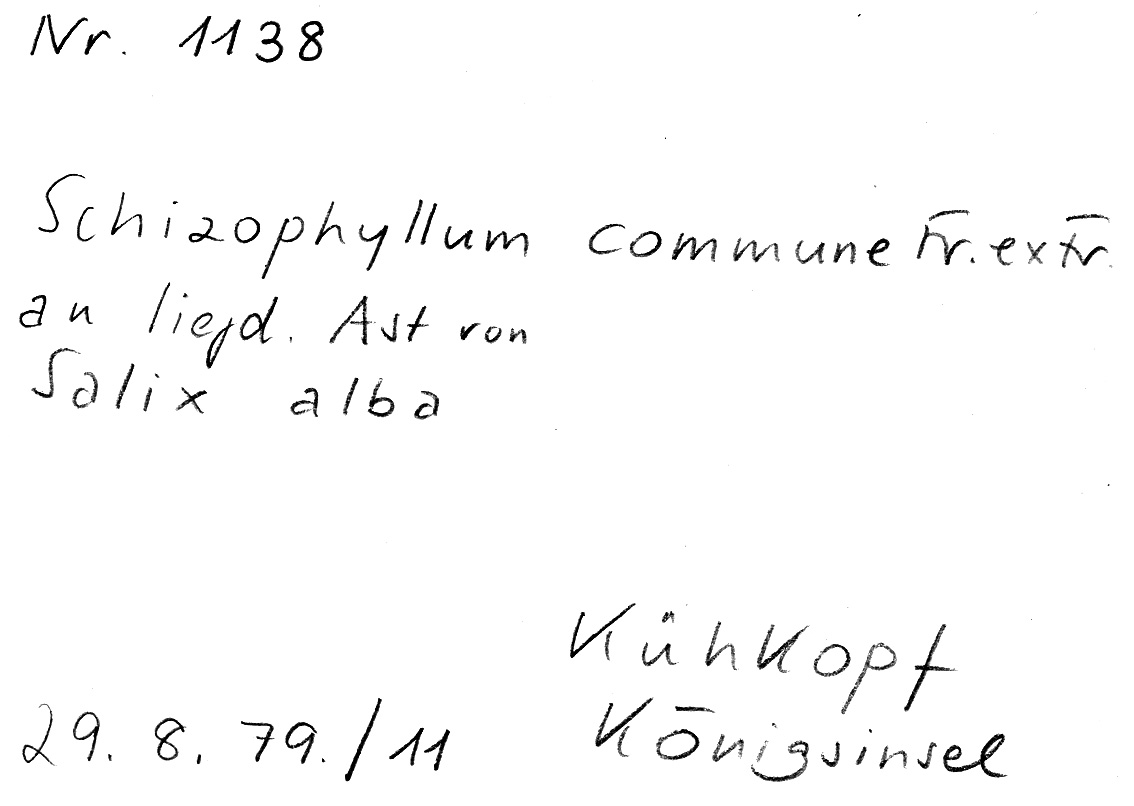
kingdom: Plantae
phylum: Tracheophyta
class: Magnoliopsida
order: Malpighiales
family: Salicaceae
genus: Salix
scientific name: Salix alba
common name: White willow
